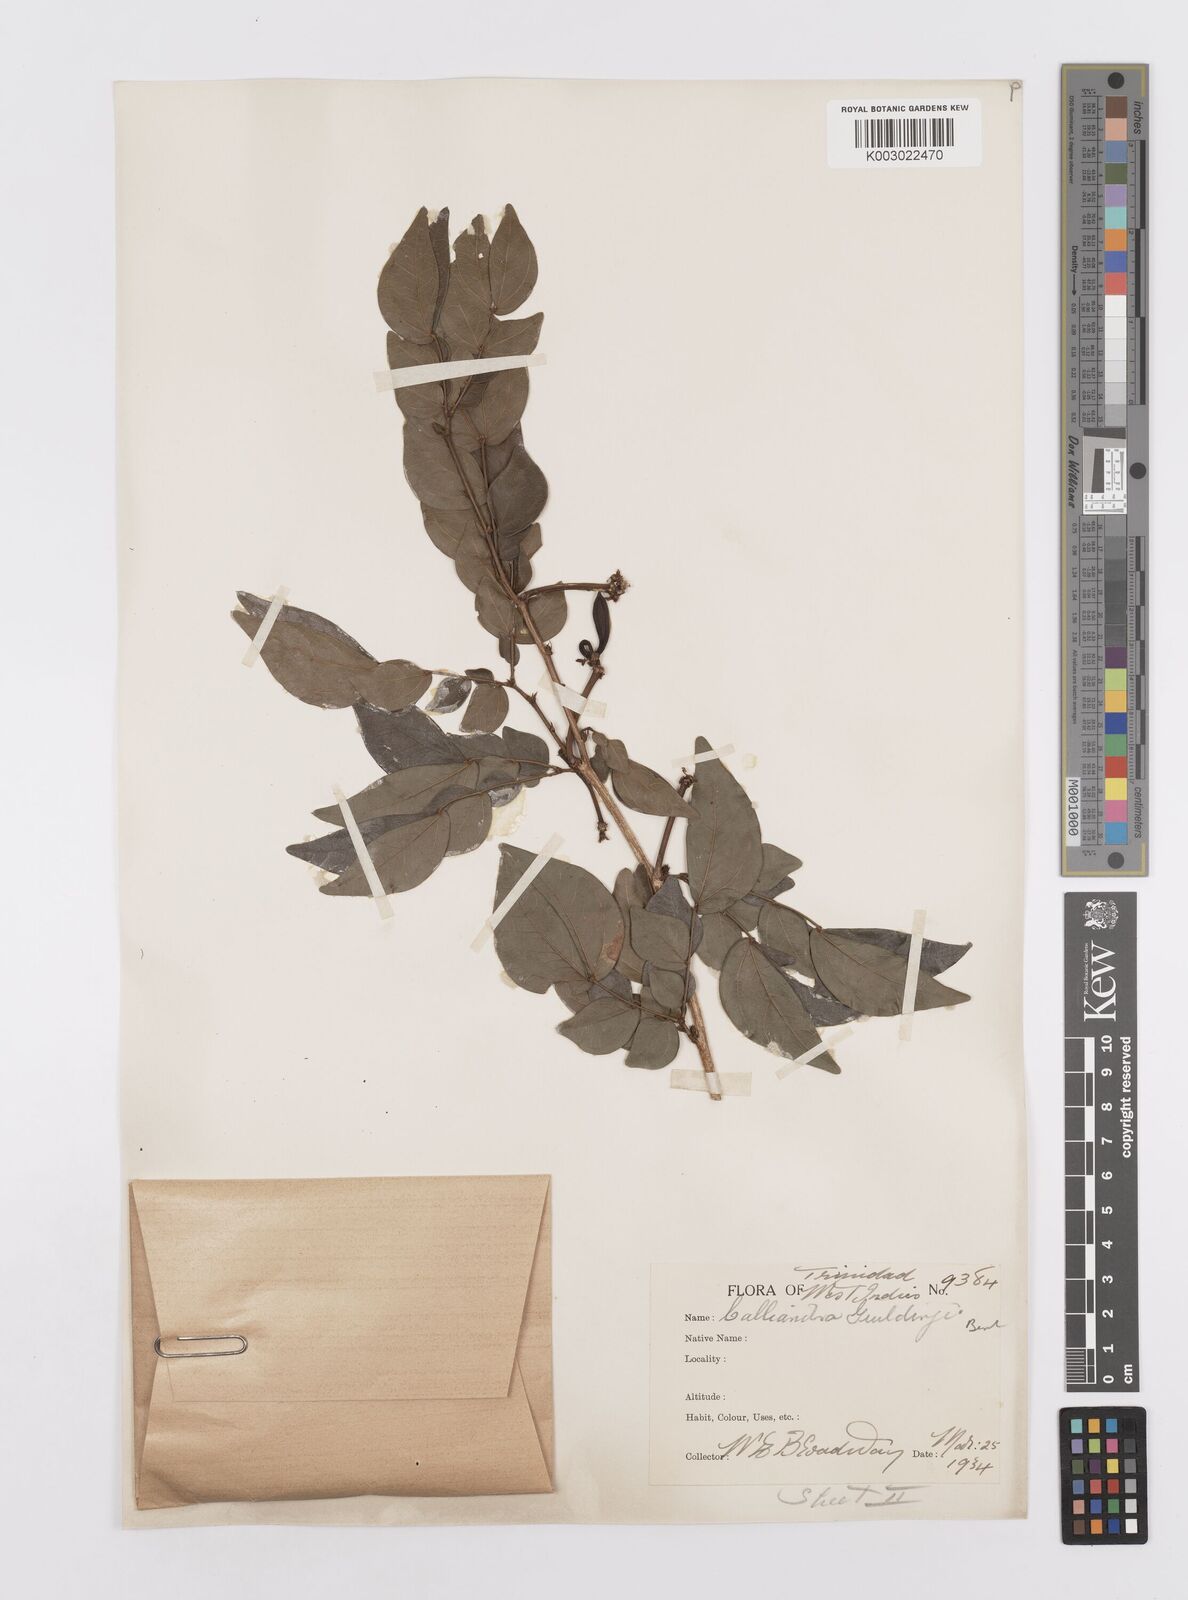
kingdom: Plantae
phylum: Tracheophyta
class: Magnoliopsida
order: Fabales
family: Fabaceae
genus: Calliandra
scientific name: Calliandra guildingii
